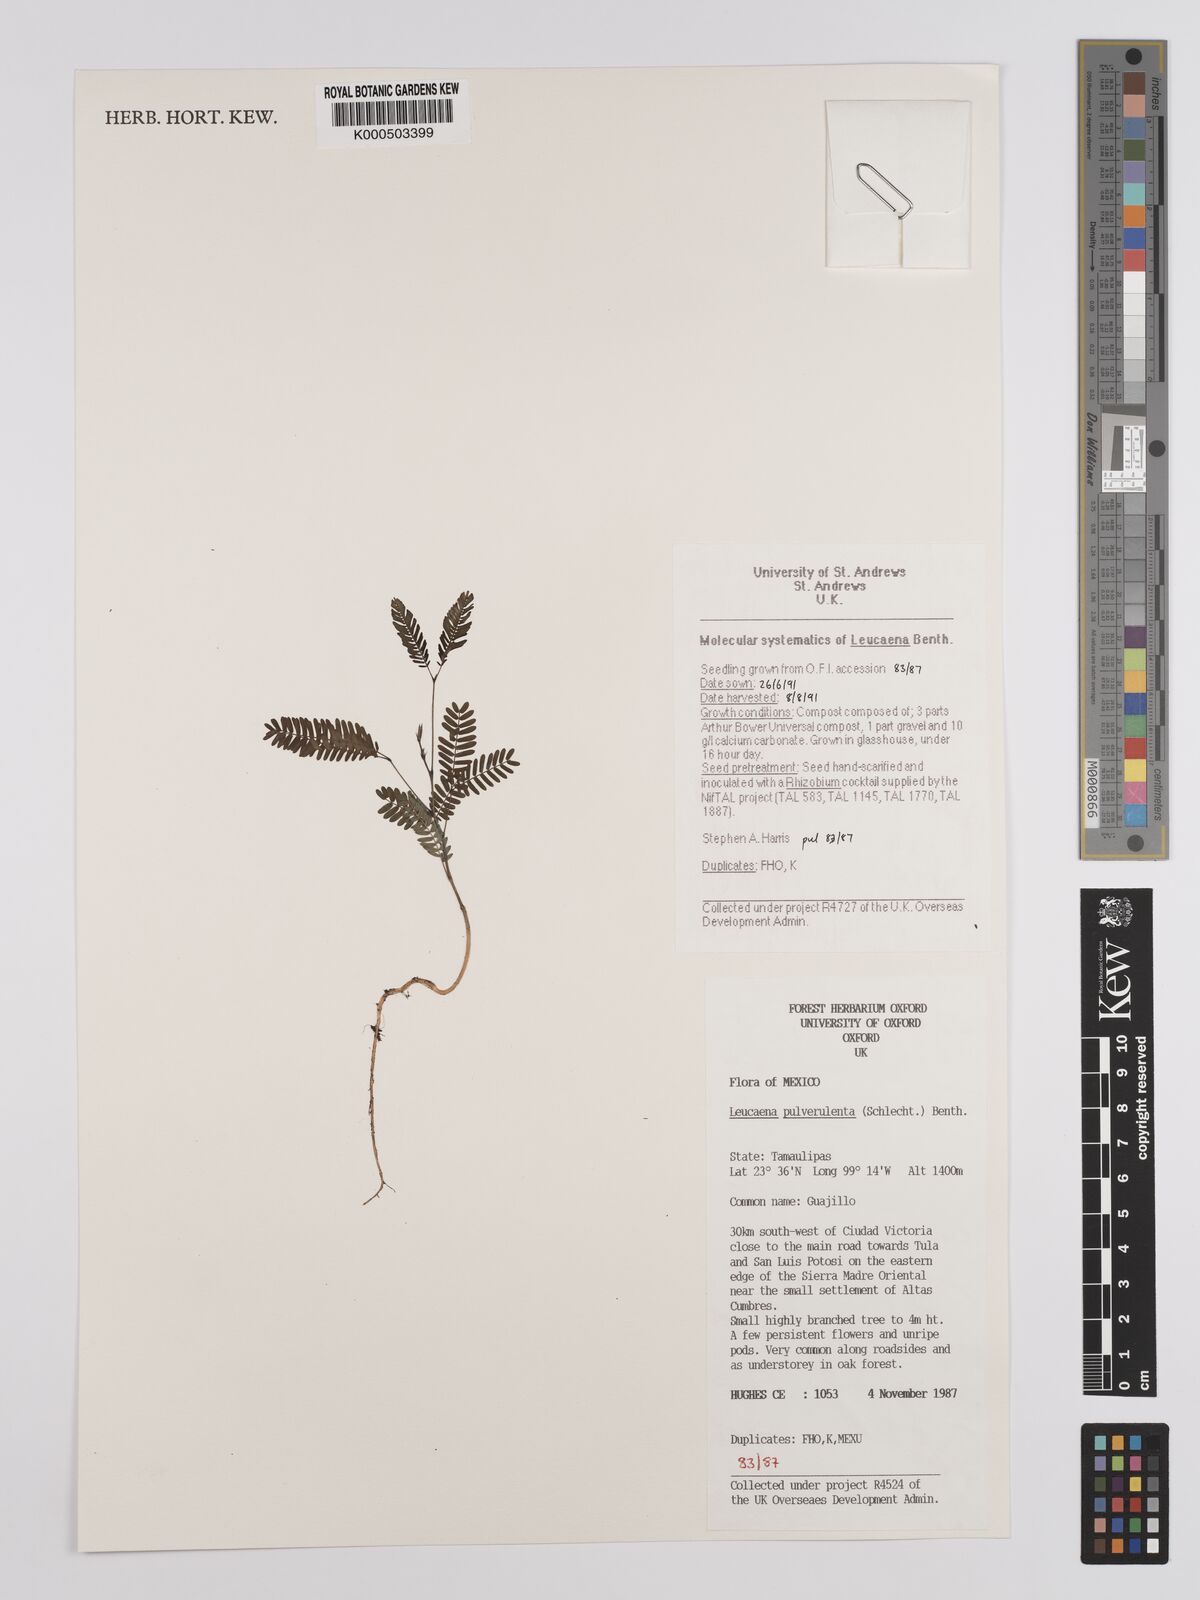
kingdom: Plantae
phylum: Tracheophyta
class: Magnoliopsida
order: Fabales
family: Fabaceae
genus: Leucaena
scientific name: Leucaena pulverulenta
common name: Great leadtree
